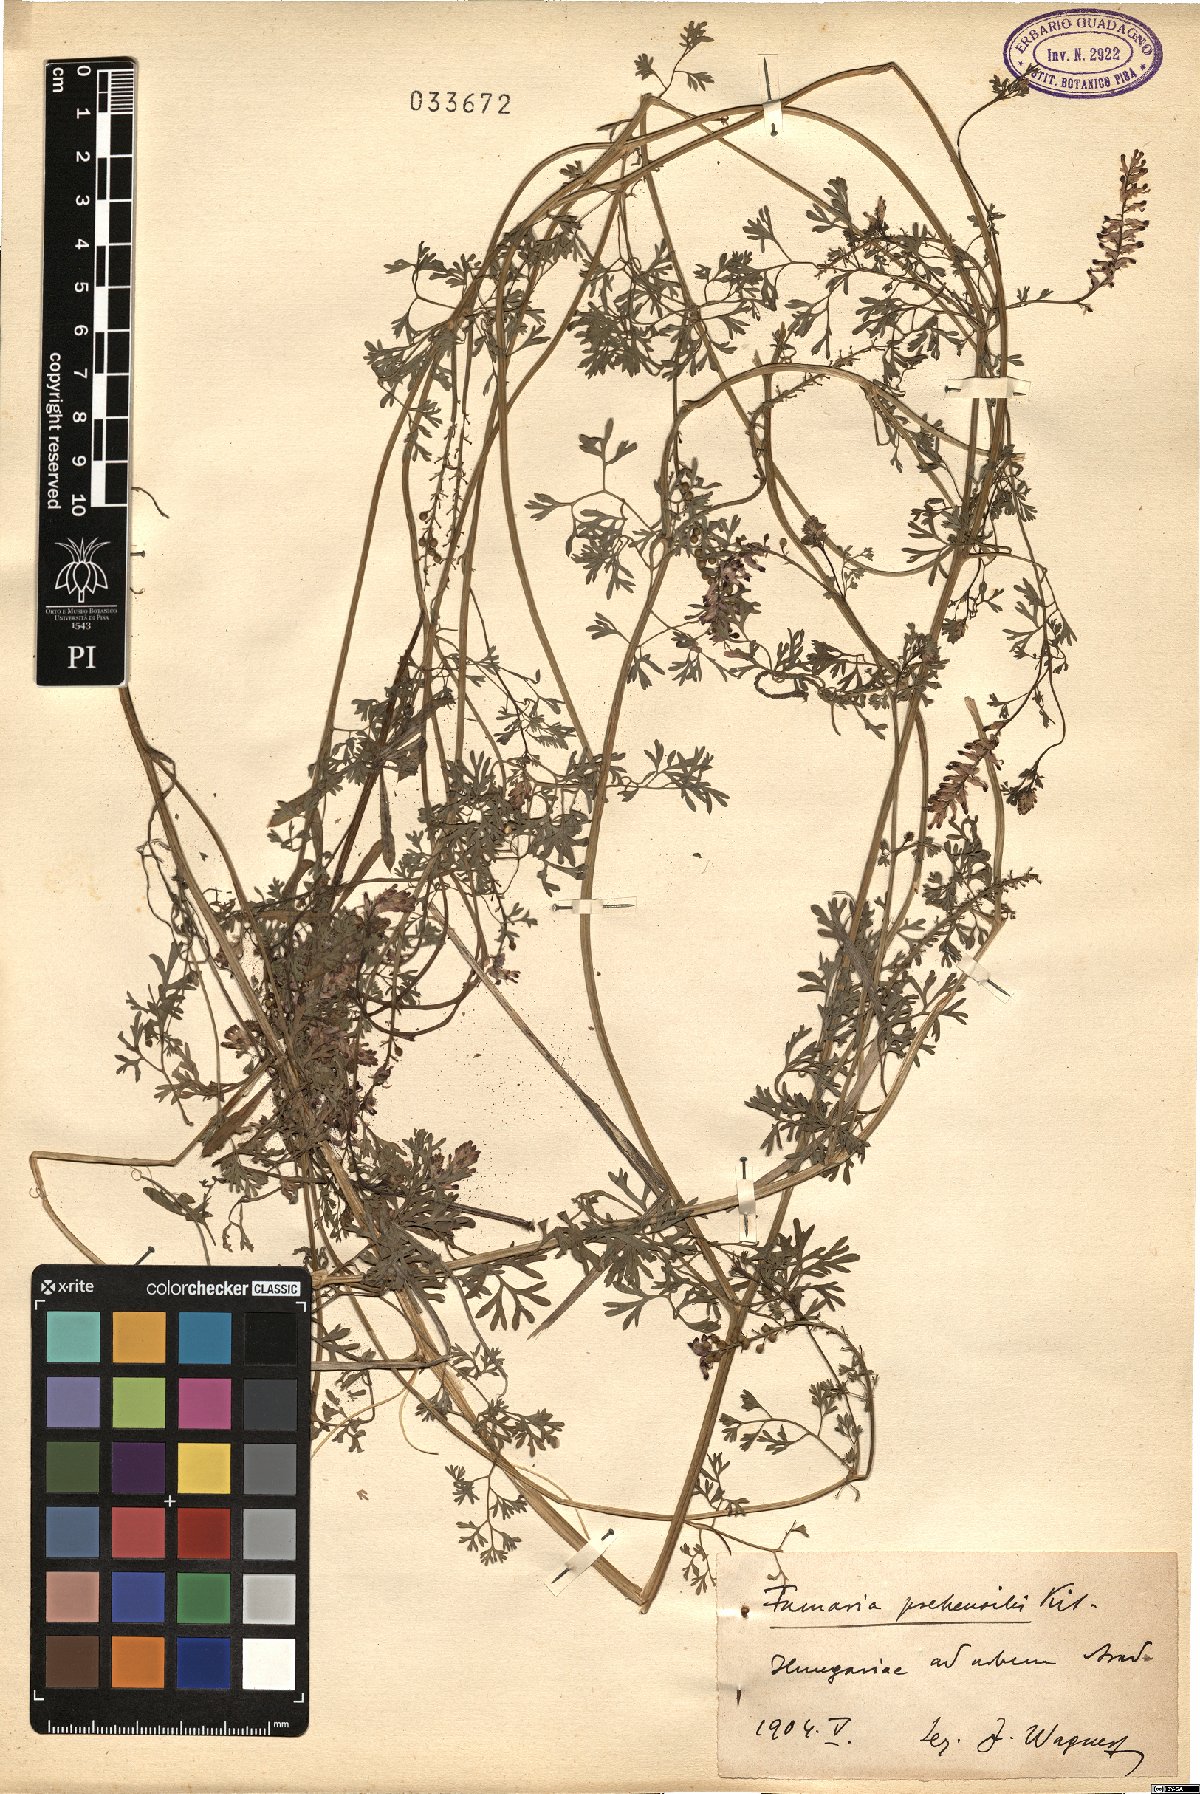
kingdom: Plantae
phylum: Tracheophyta
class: Magnoliopsida
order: Ranunculales
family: Papaveraceae
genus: Fumaria
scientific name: Fumaria rostellata
